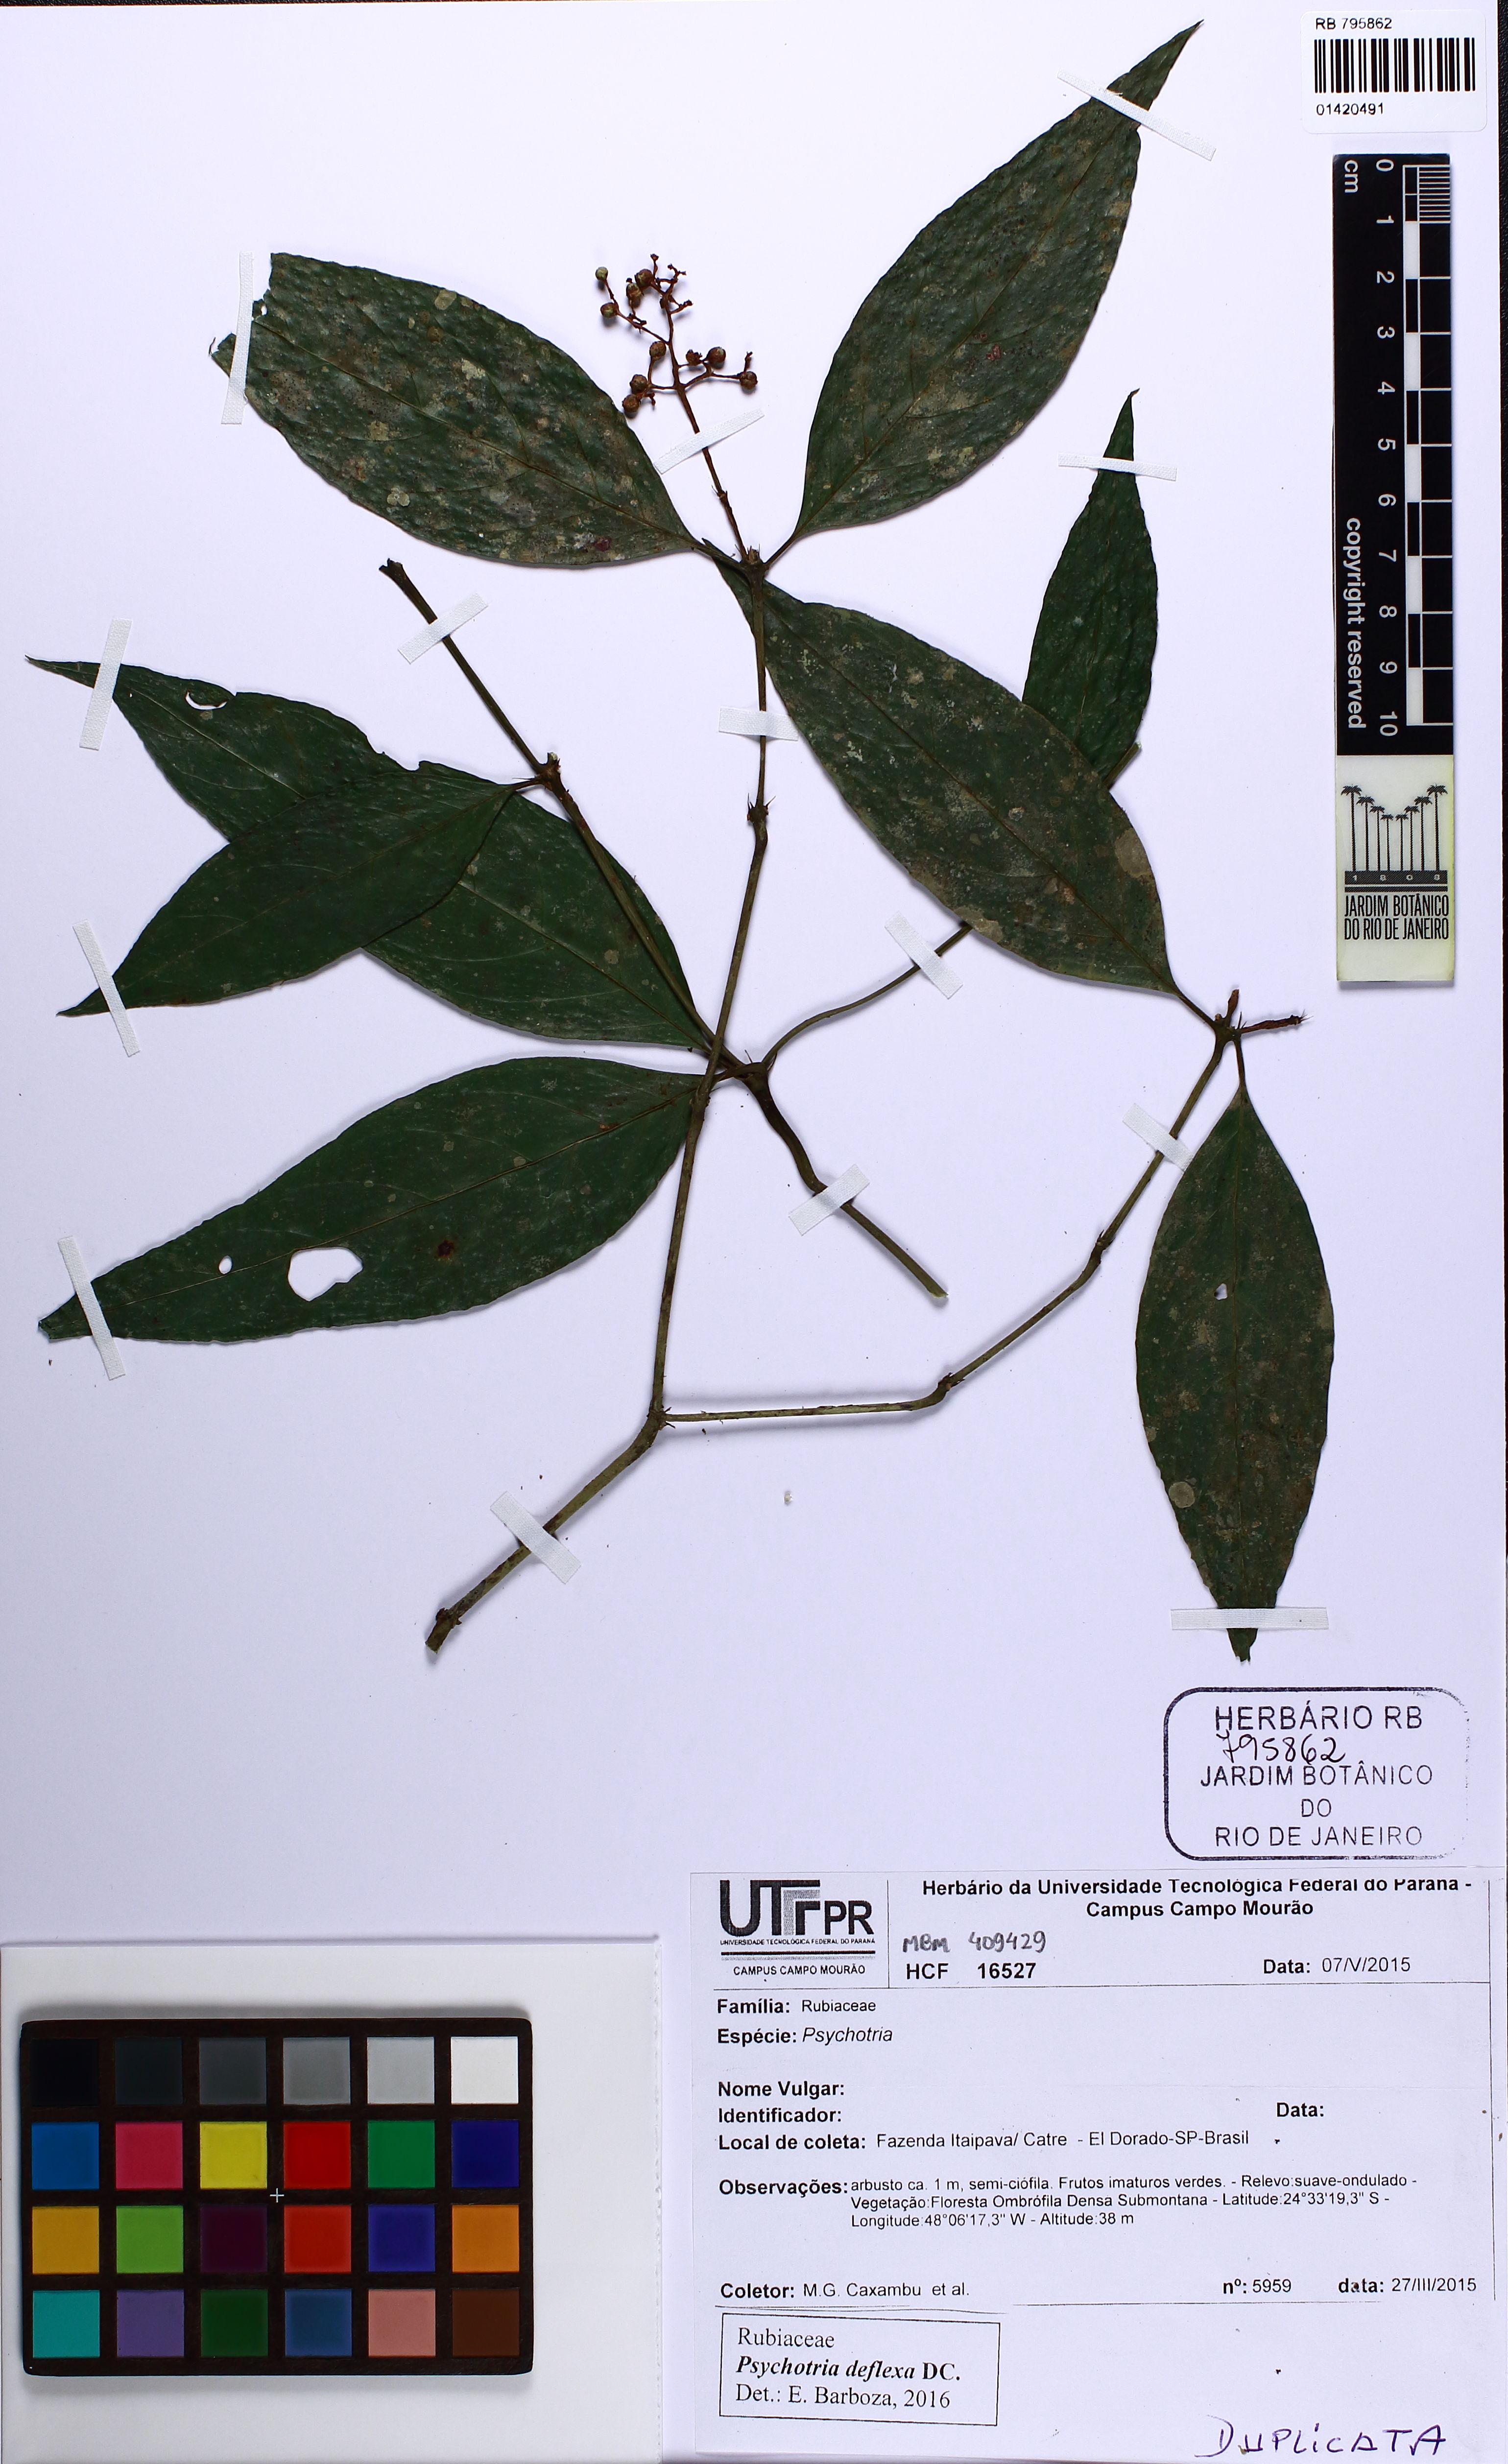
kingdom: Plantae
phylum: Tracheophyta
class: Magnoliopsida
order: Gentianales
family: Rubiaceae
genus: Palicourea
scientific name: Palicourea deflexa
